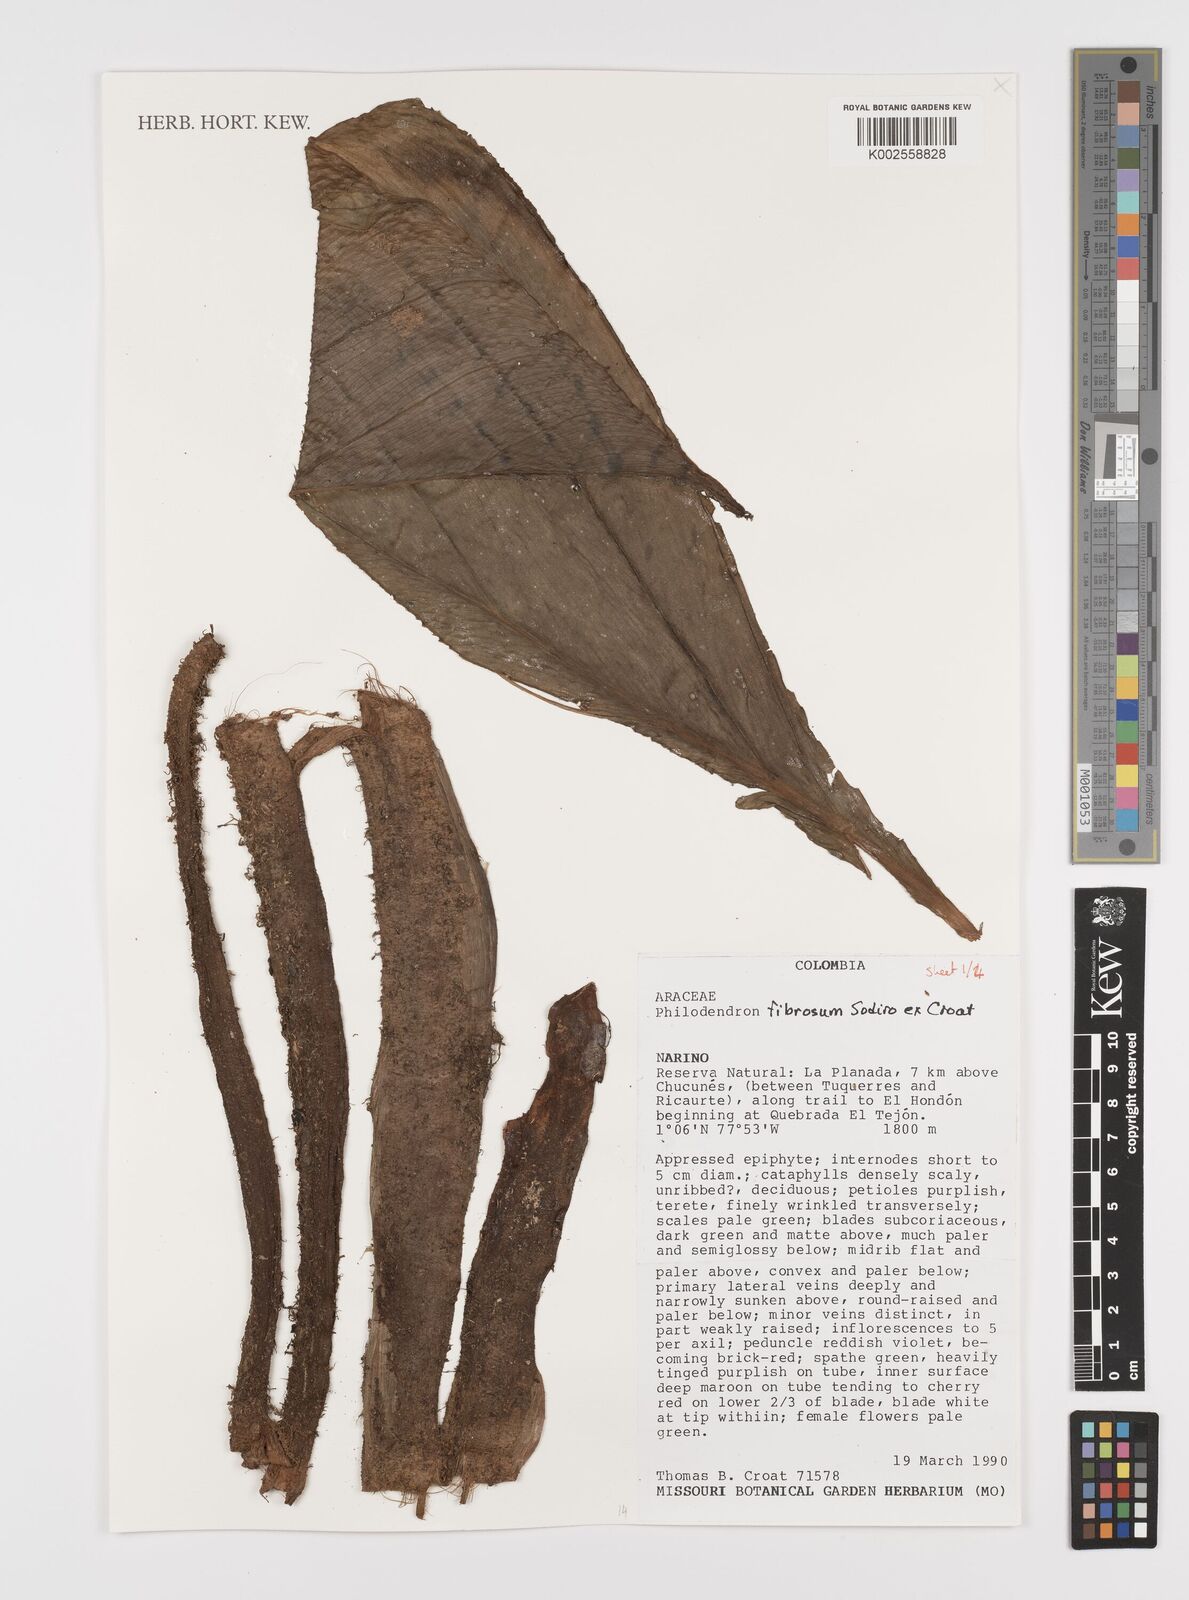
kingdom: Plantae
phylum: Tracheophyta
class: Liliopsida
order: Alismatales
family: Araceae
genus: Philodendron
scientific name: Philodendron fibrosum
